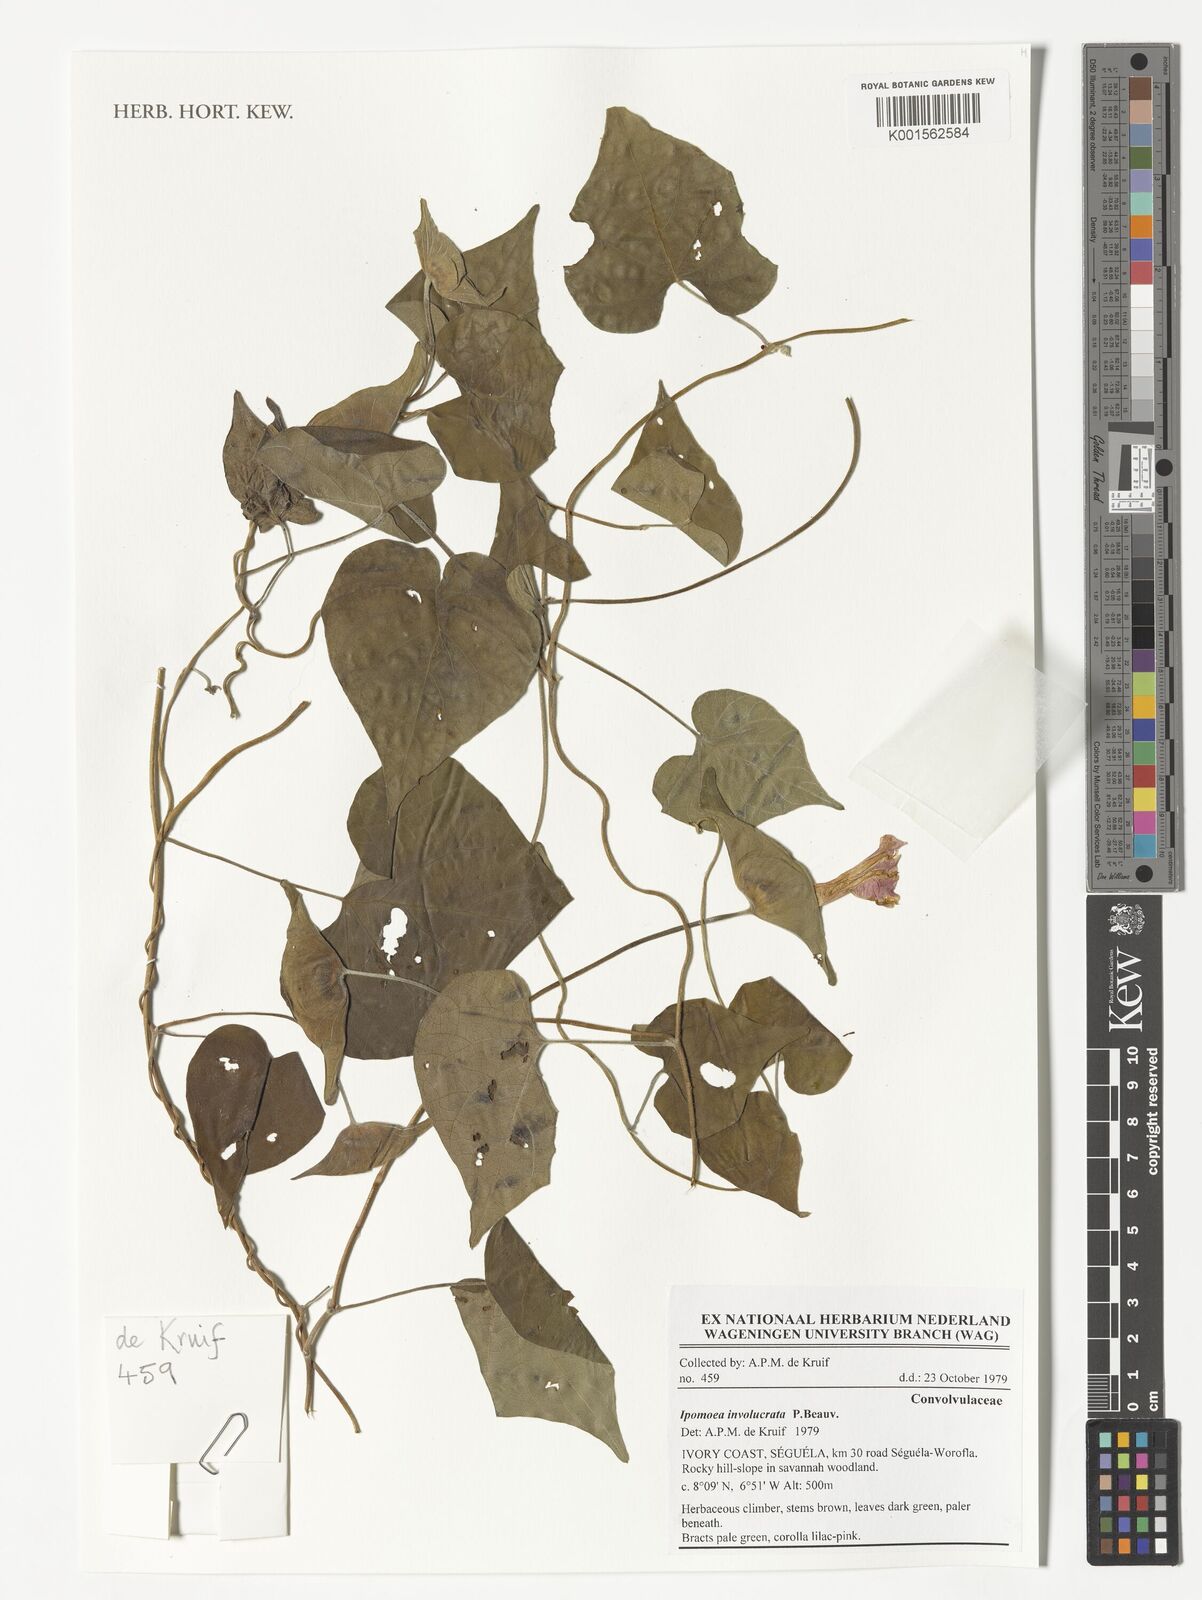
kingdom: Plantae
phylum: Tracheophyta
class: Magnoliopsida
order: Solanales
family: Convolvulaceae
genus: Ipomoea
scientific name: Ipomoea involucrata
